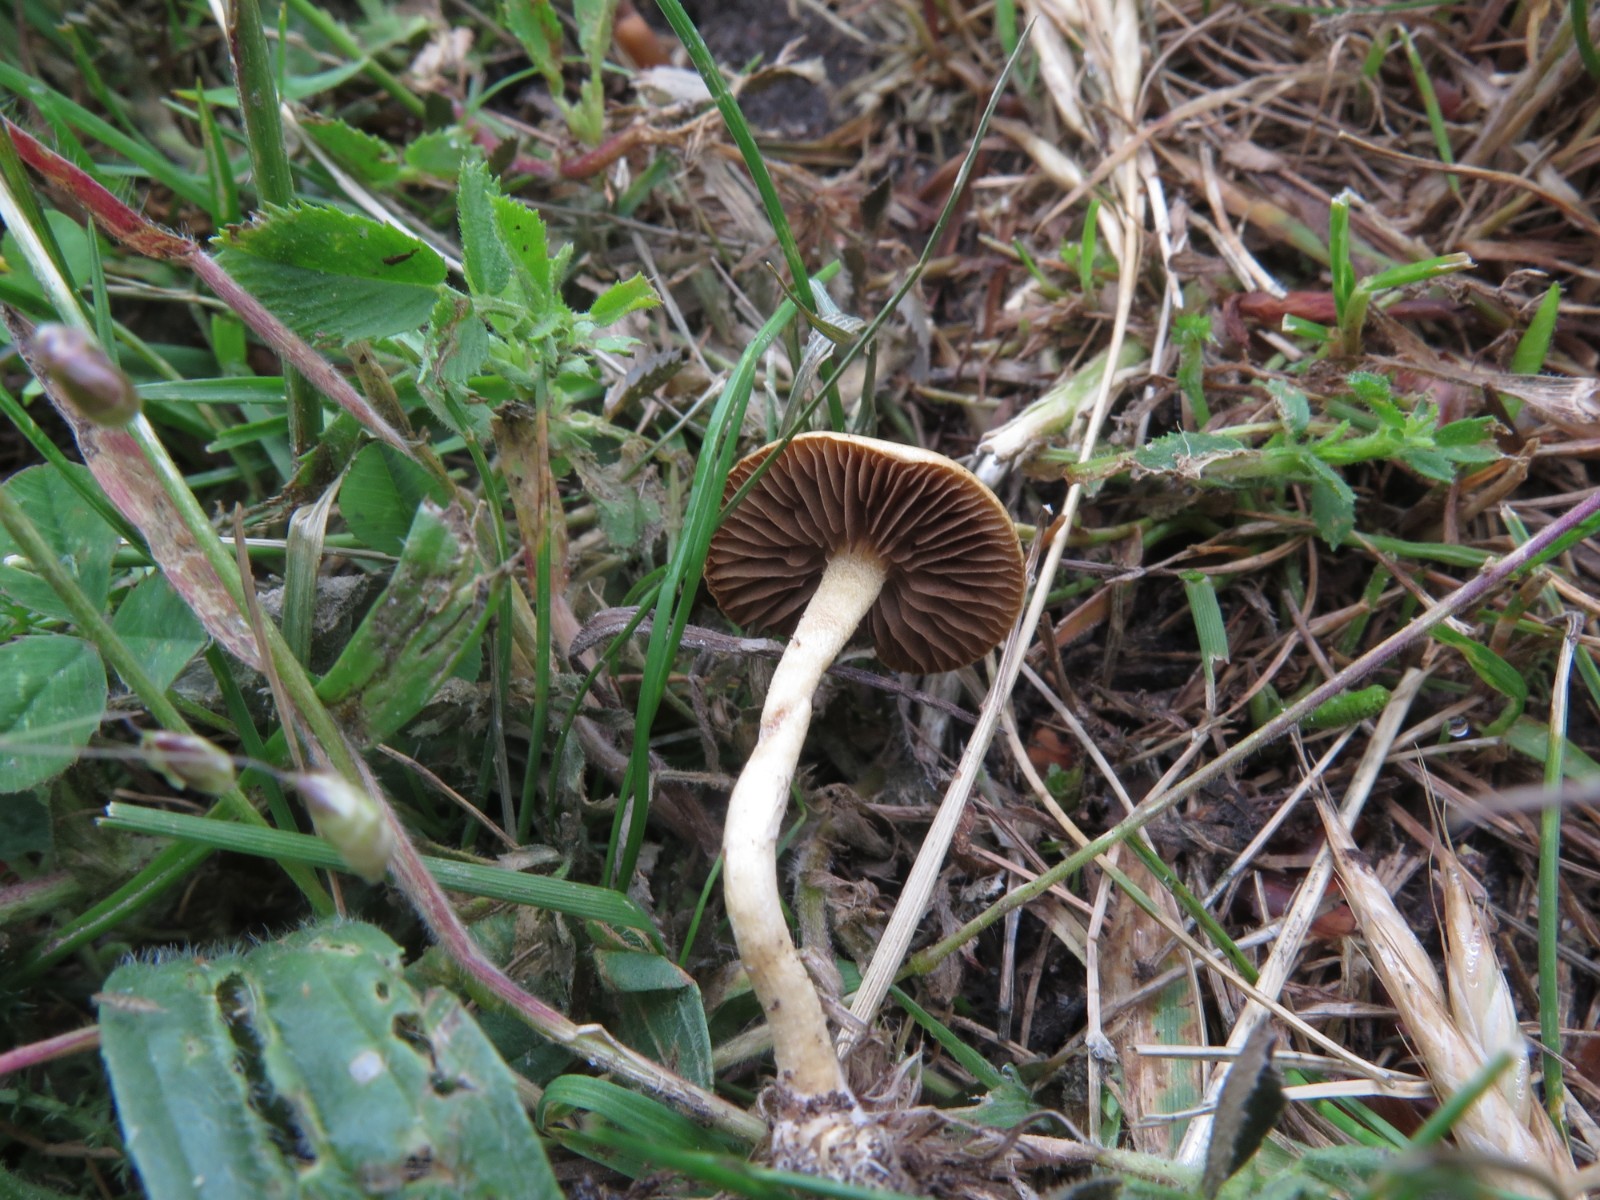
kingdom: Fungi
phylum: Basidiomycota
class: Agaricomycetes
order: Agaricales
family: Strophariaceae
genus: Agrocybe
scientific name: Agrocybe pediades
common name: almindelig agerhat
